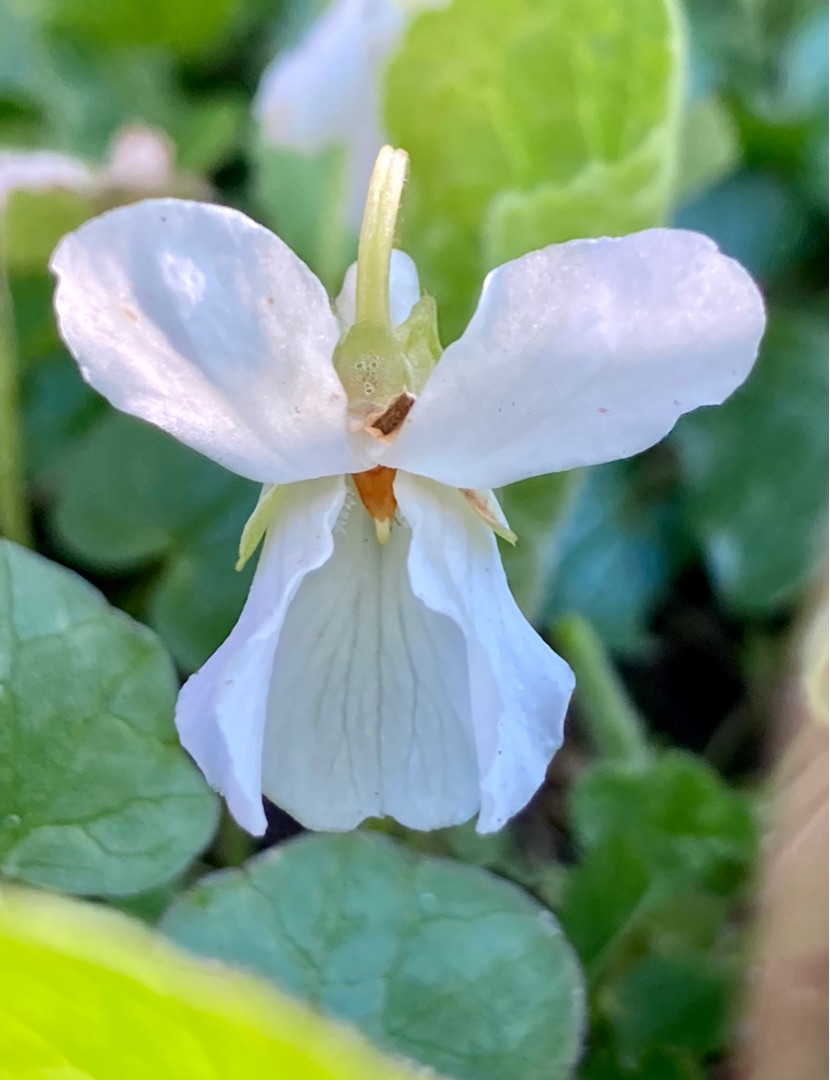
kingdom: Plantae
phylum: Tracheophyta
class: Magnoliopsida
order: Malpighiales
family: Violaceae
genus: Viola
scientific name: Viola odorata
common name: Marts-viol
